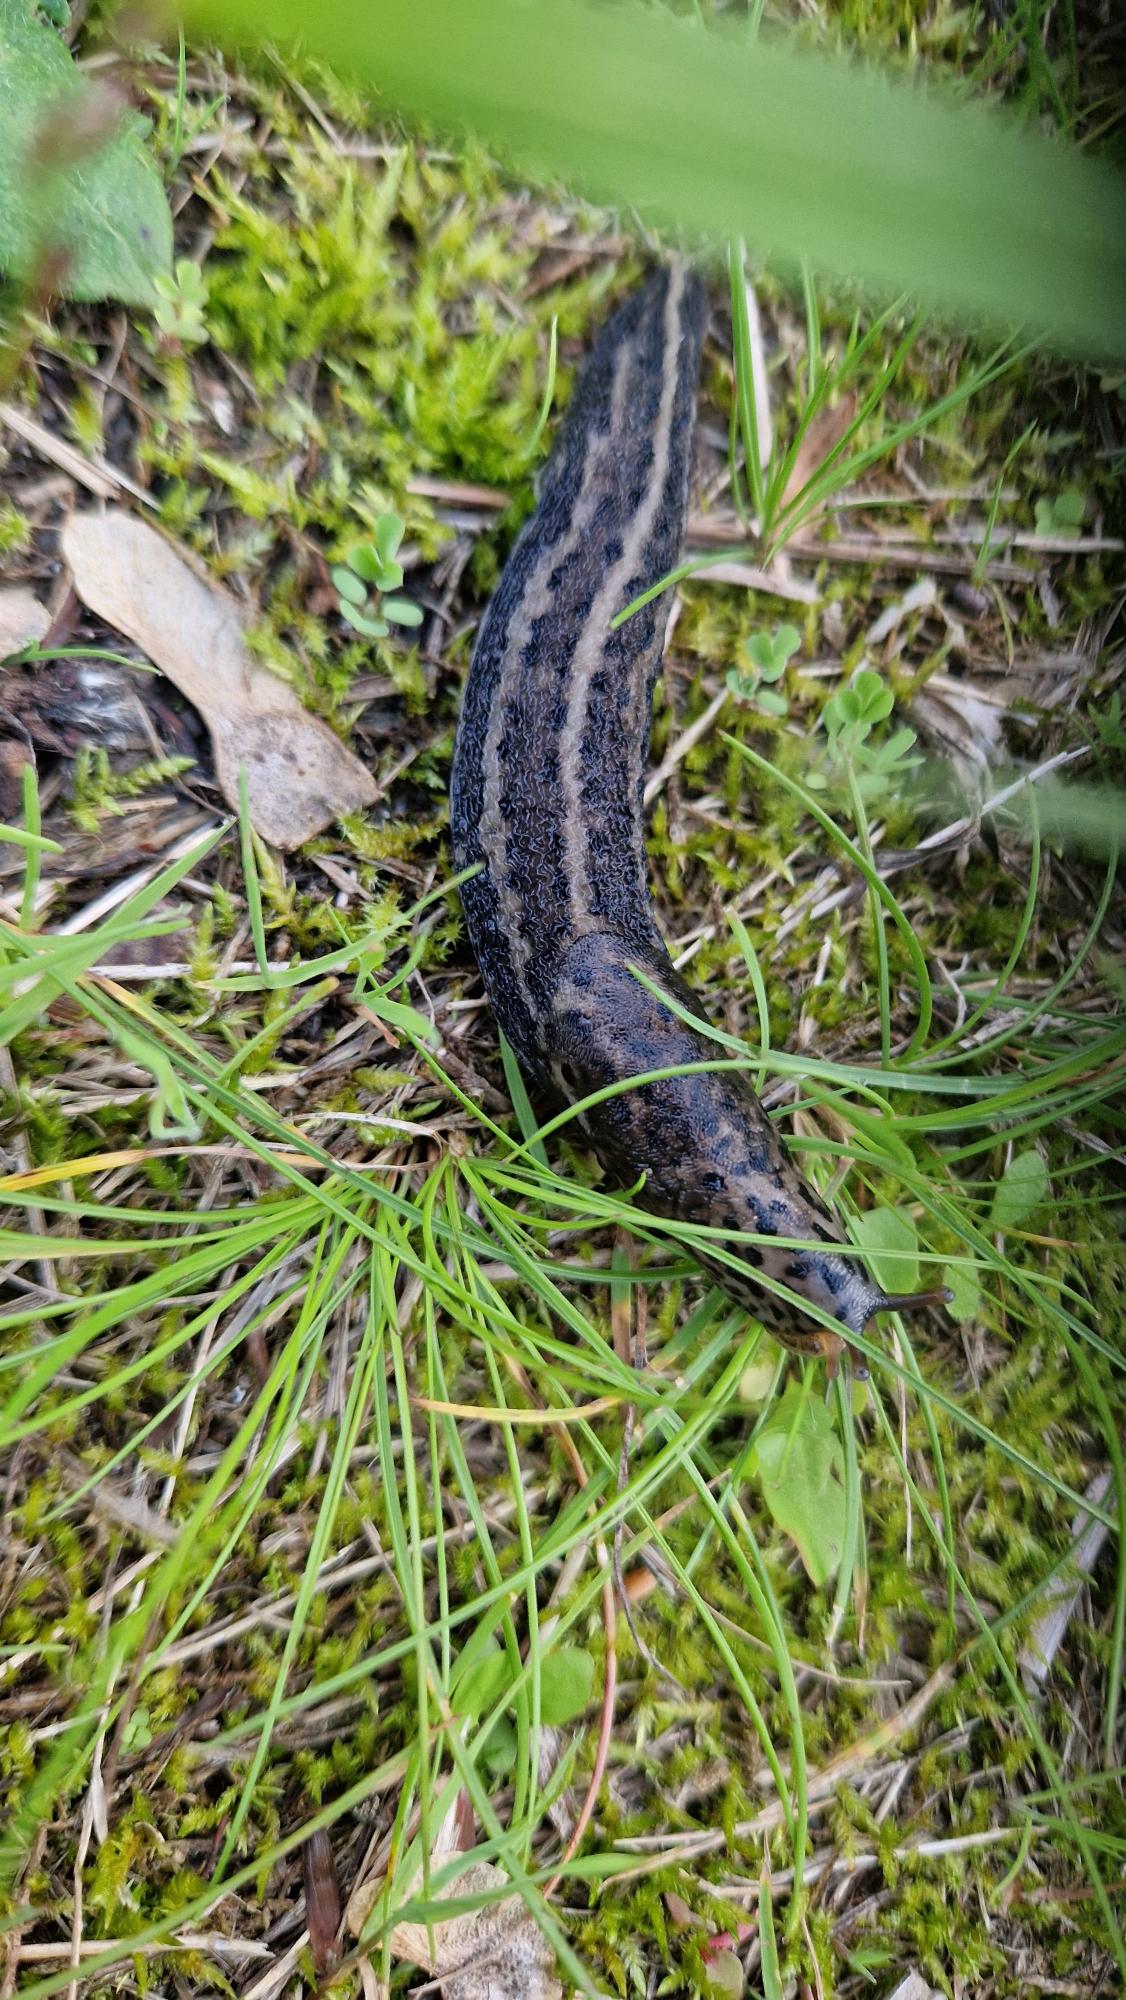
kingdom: Animalia
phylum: Mollusca
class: Gastropoda
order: Stylommatophora
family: Limacidae
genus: Limax
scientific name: Limax maximus
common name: Pantersnegl
